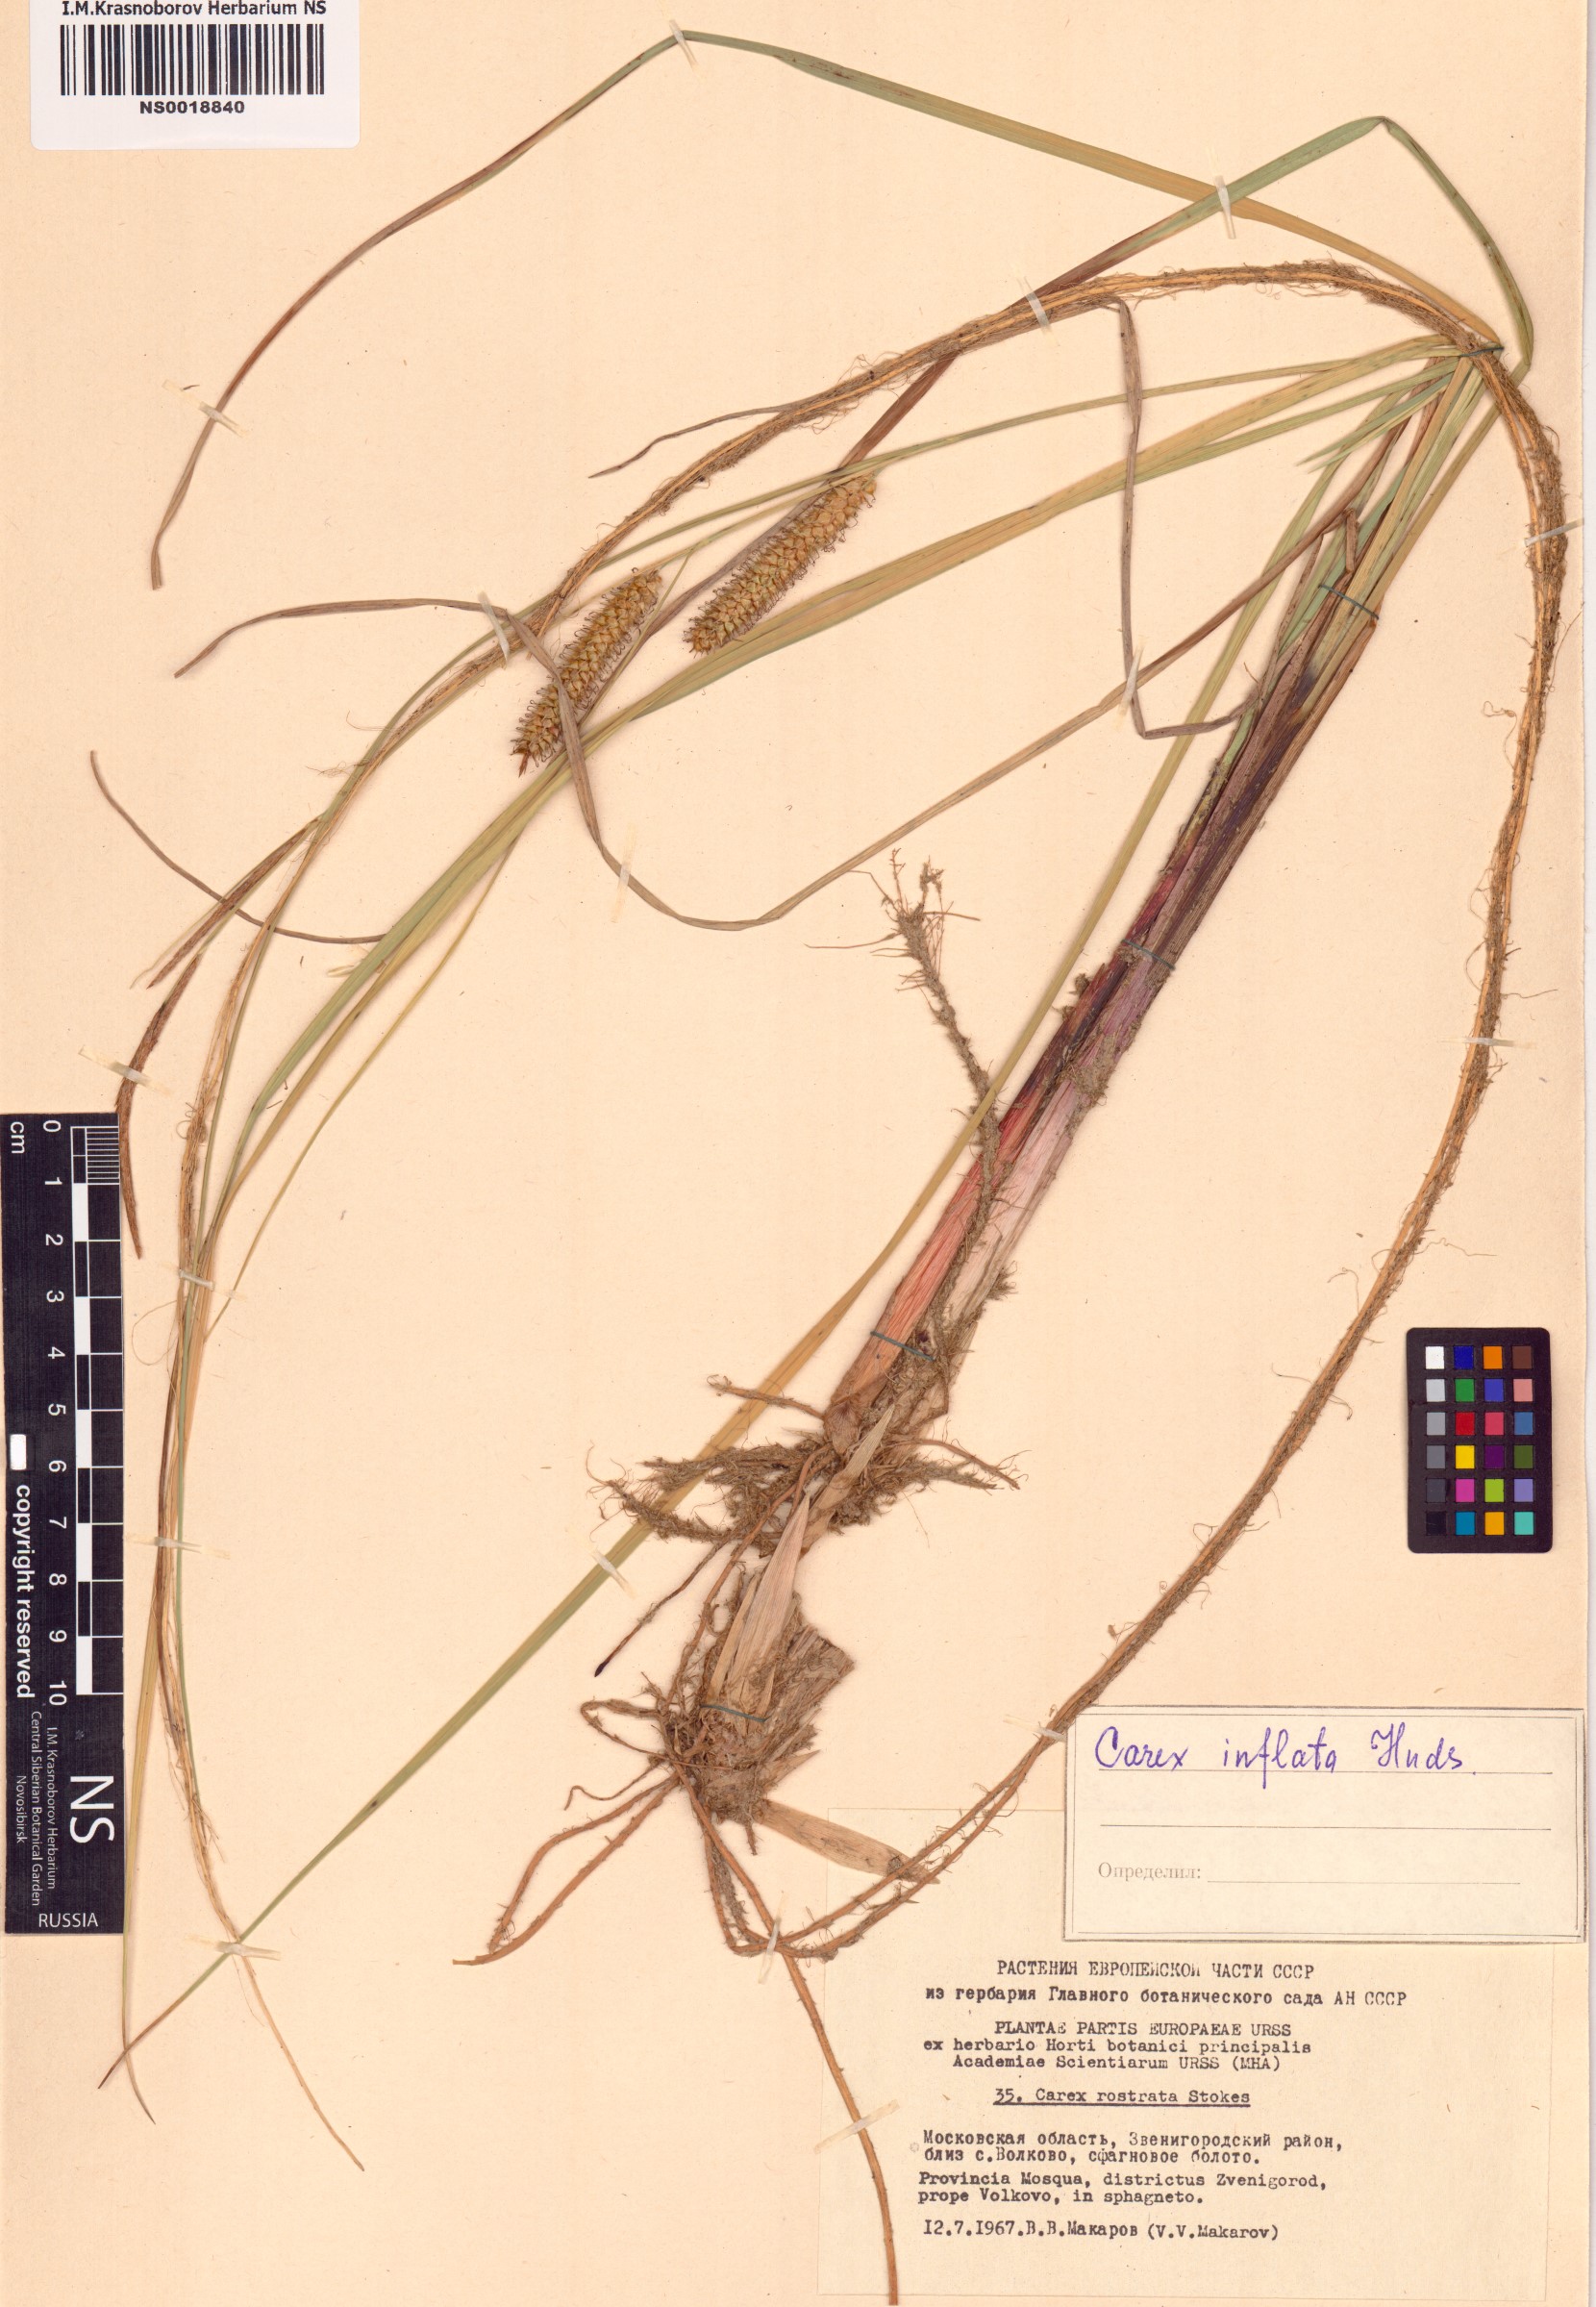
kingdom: Plantae
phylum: Tracheophyta
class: Liliopsida
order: Poales
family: Cyperaceae
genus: Carex
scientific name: Carex rostrata
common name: Bottle sedge
